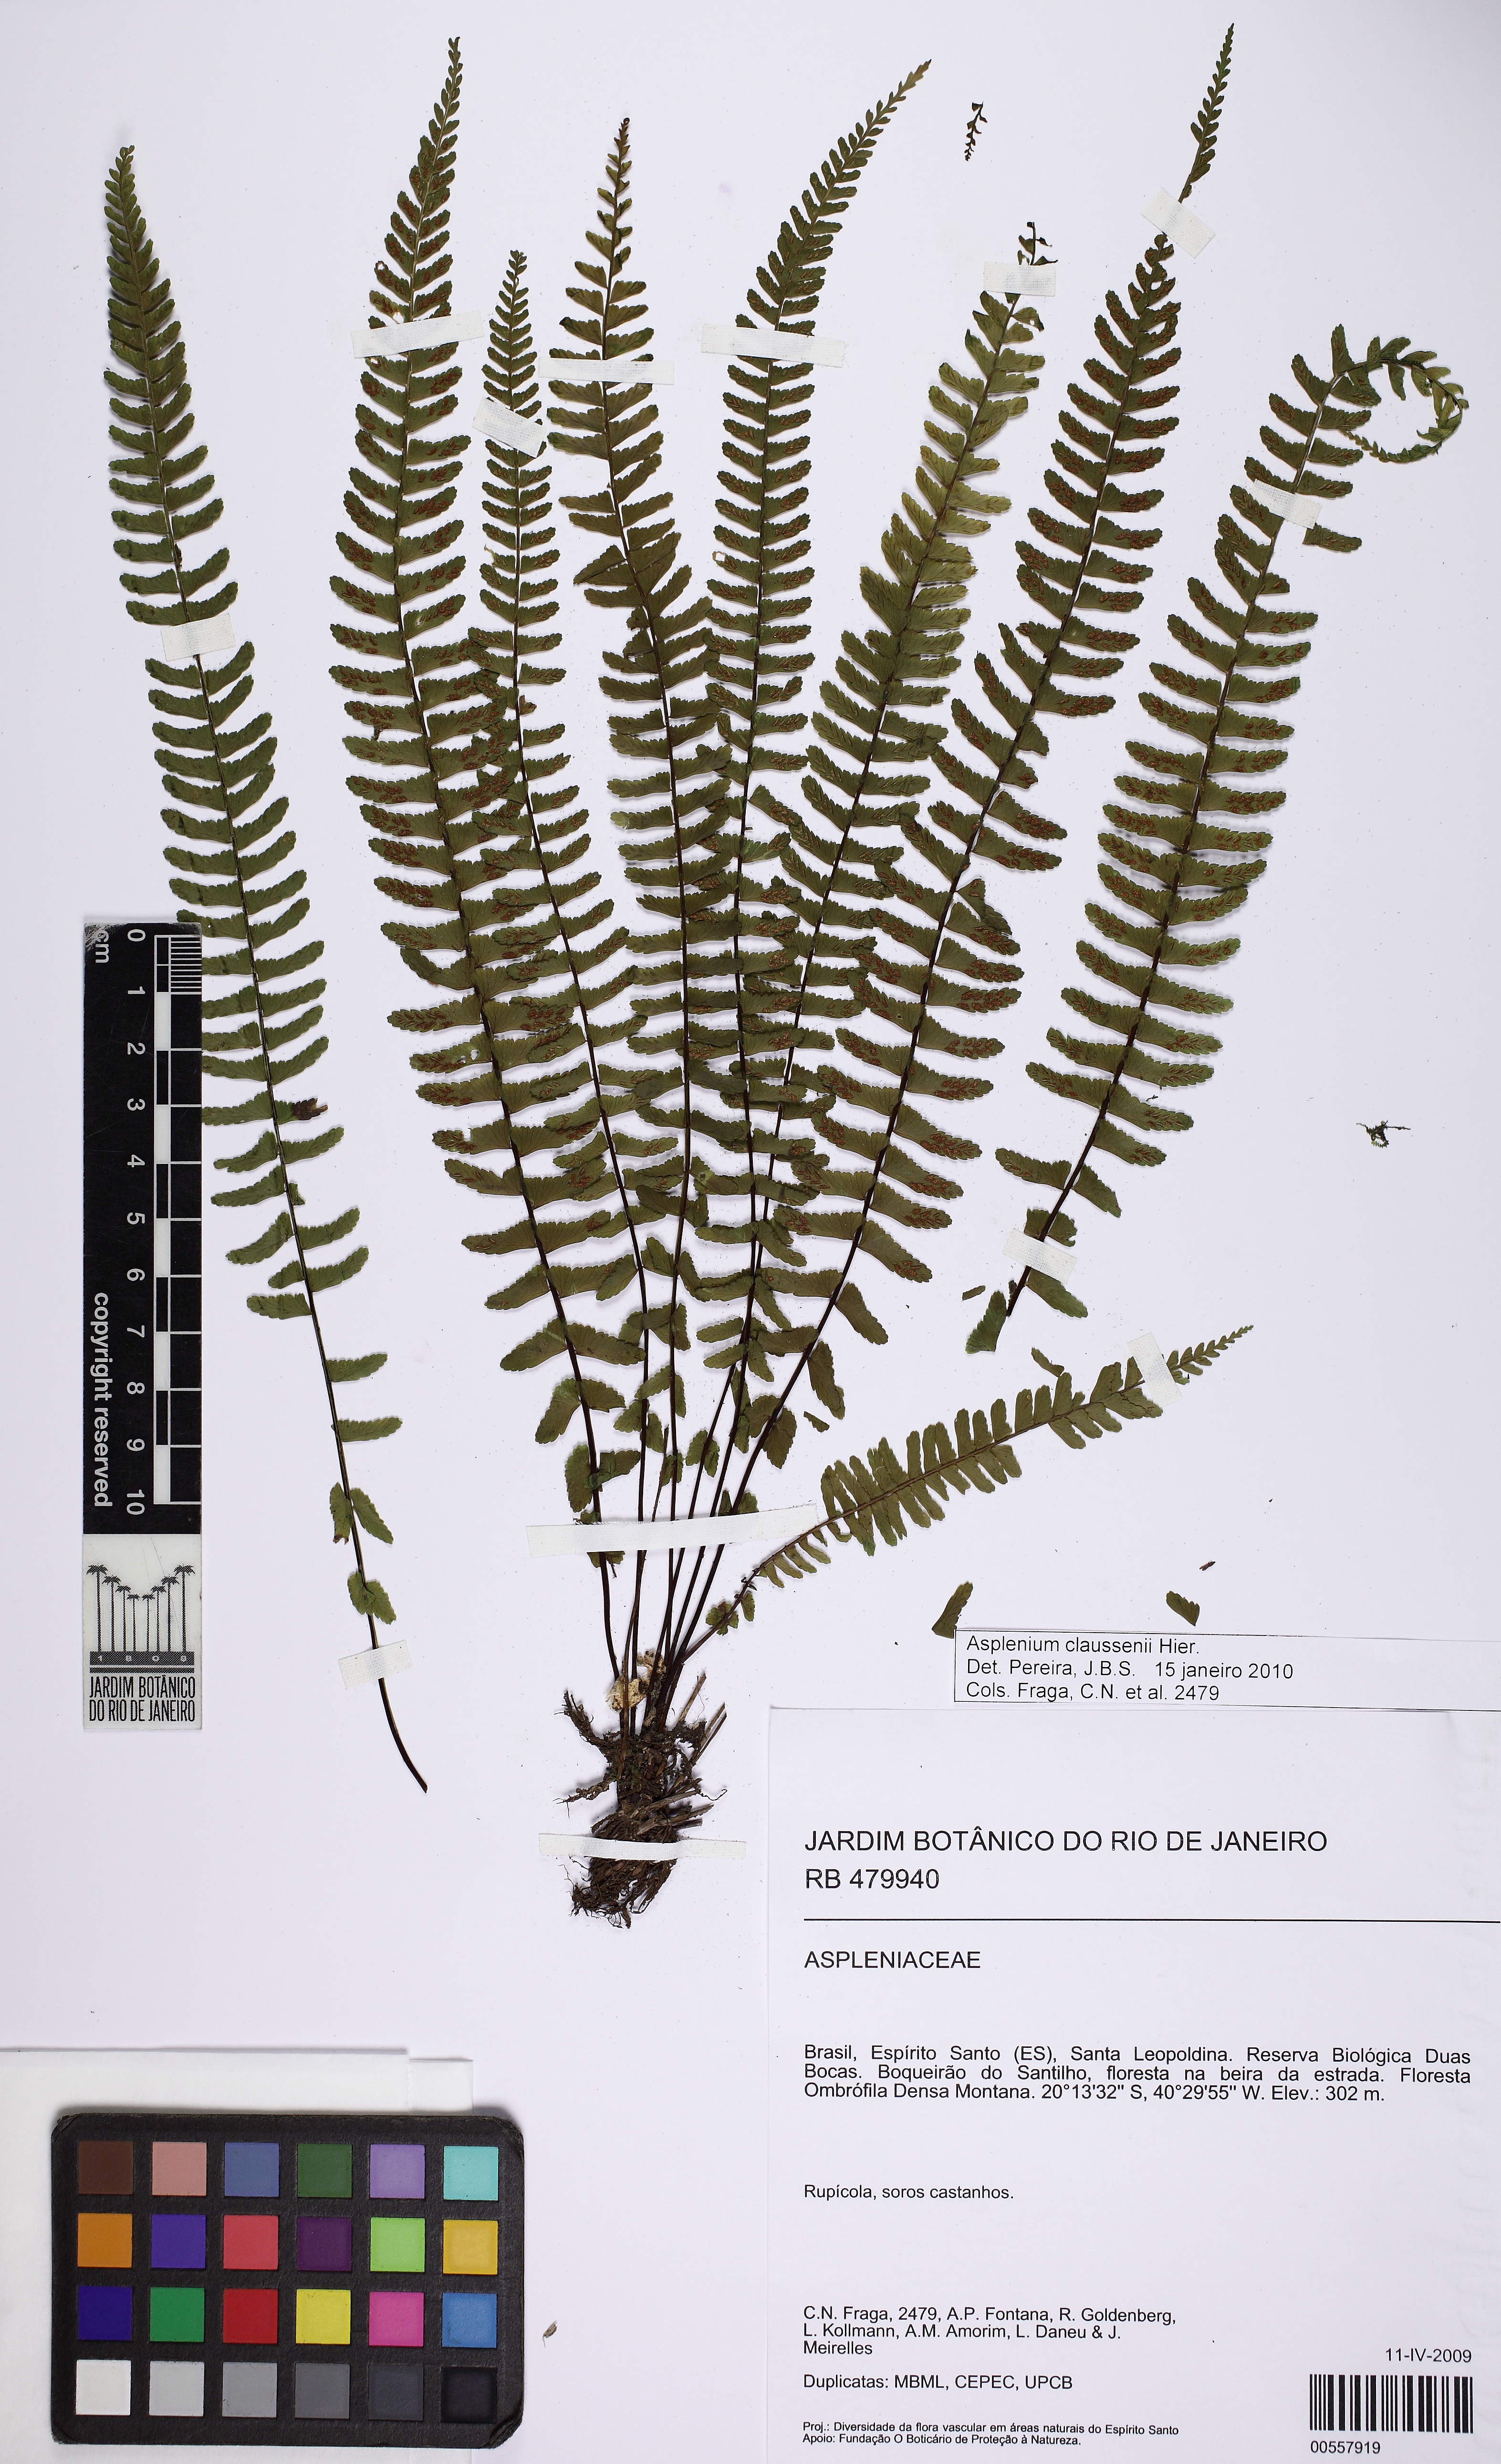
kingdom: Plantae
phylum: Tracheophyta
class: Polypodiopsida
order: Polypodiales
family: Aspleniaceae
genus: Asplenium
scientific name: Asplenium claussenii
